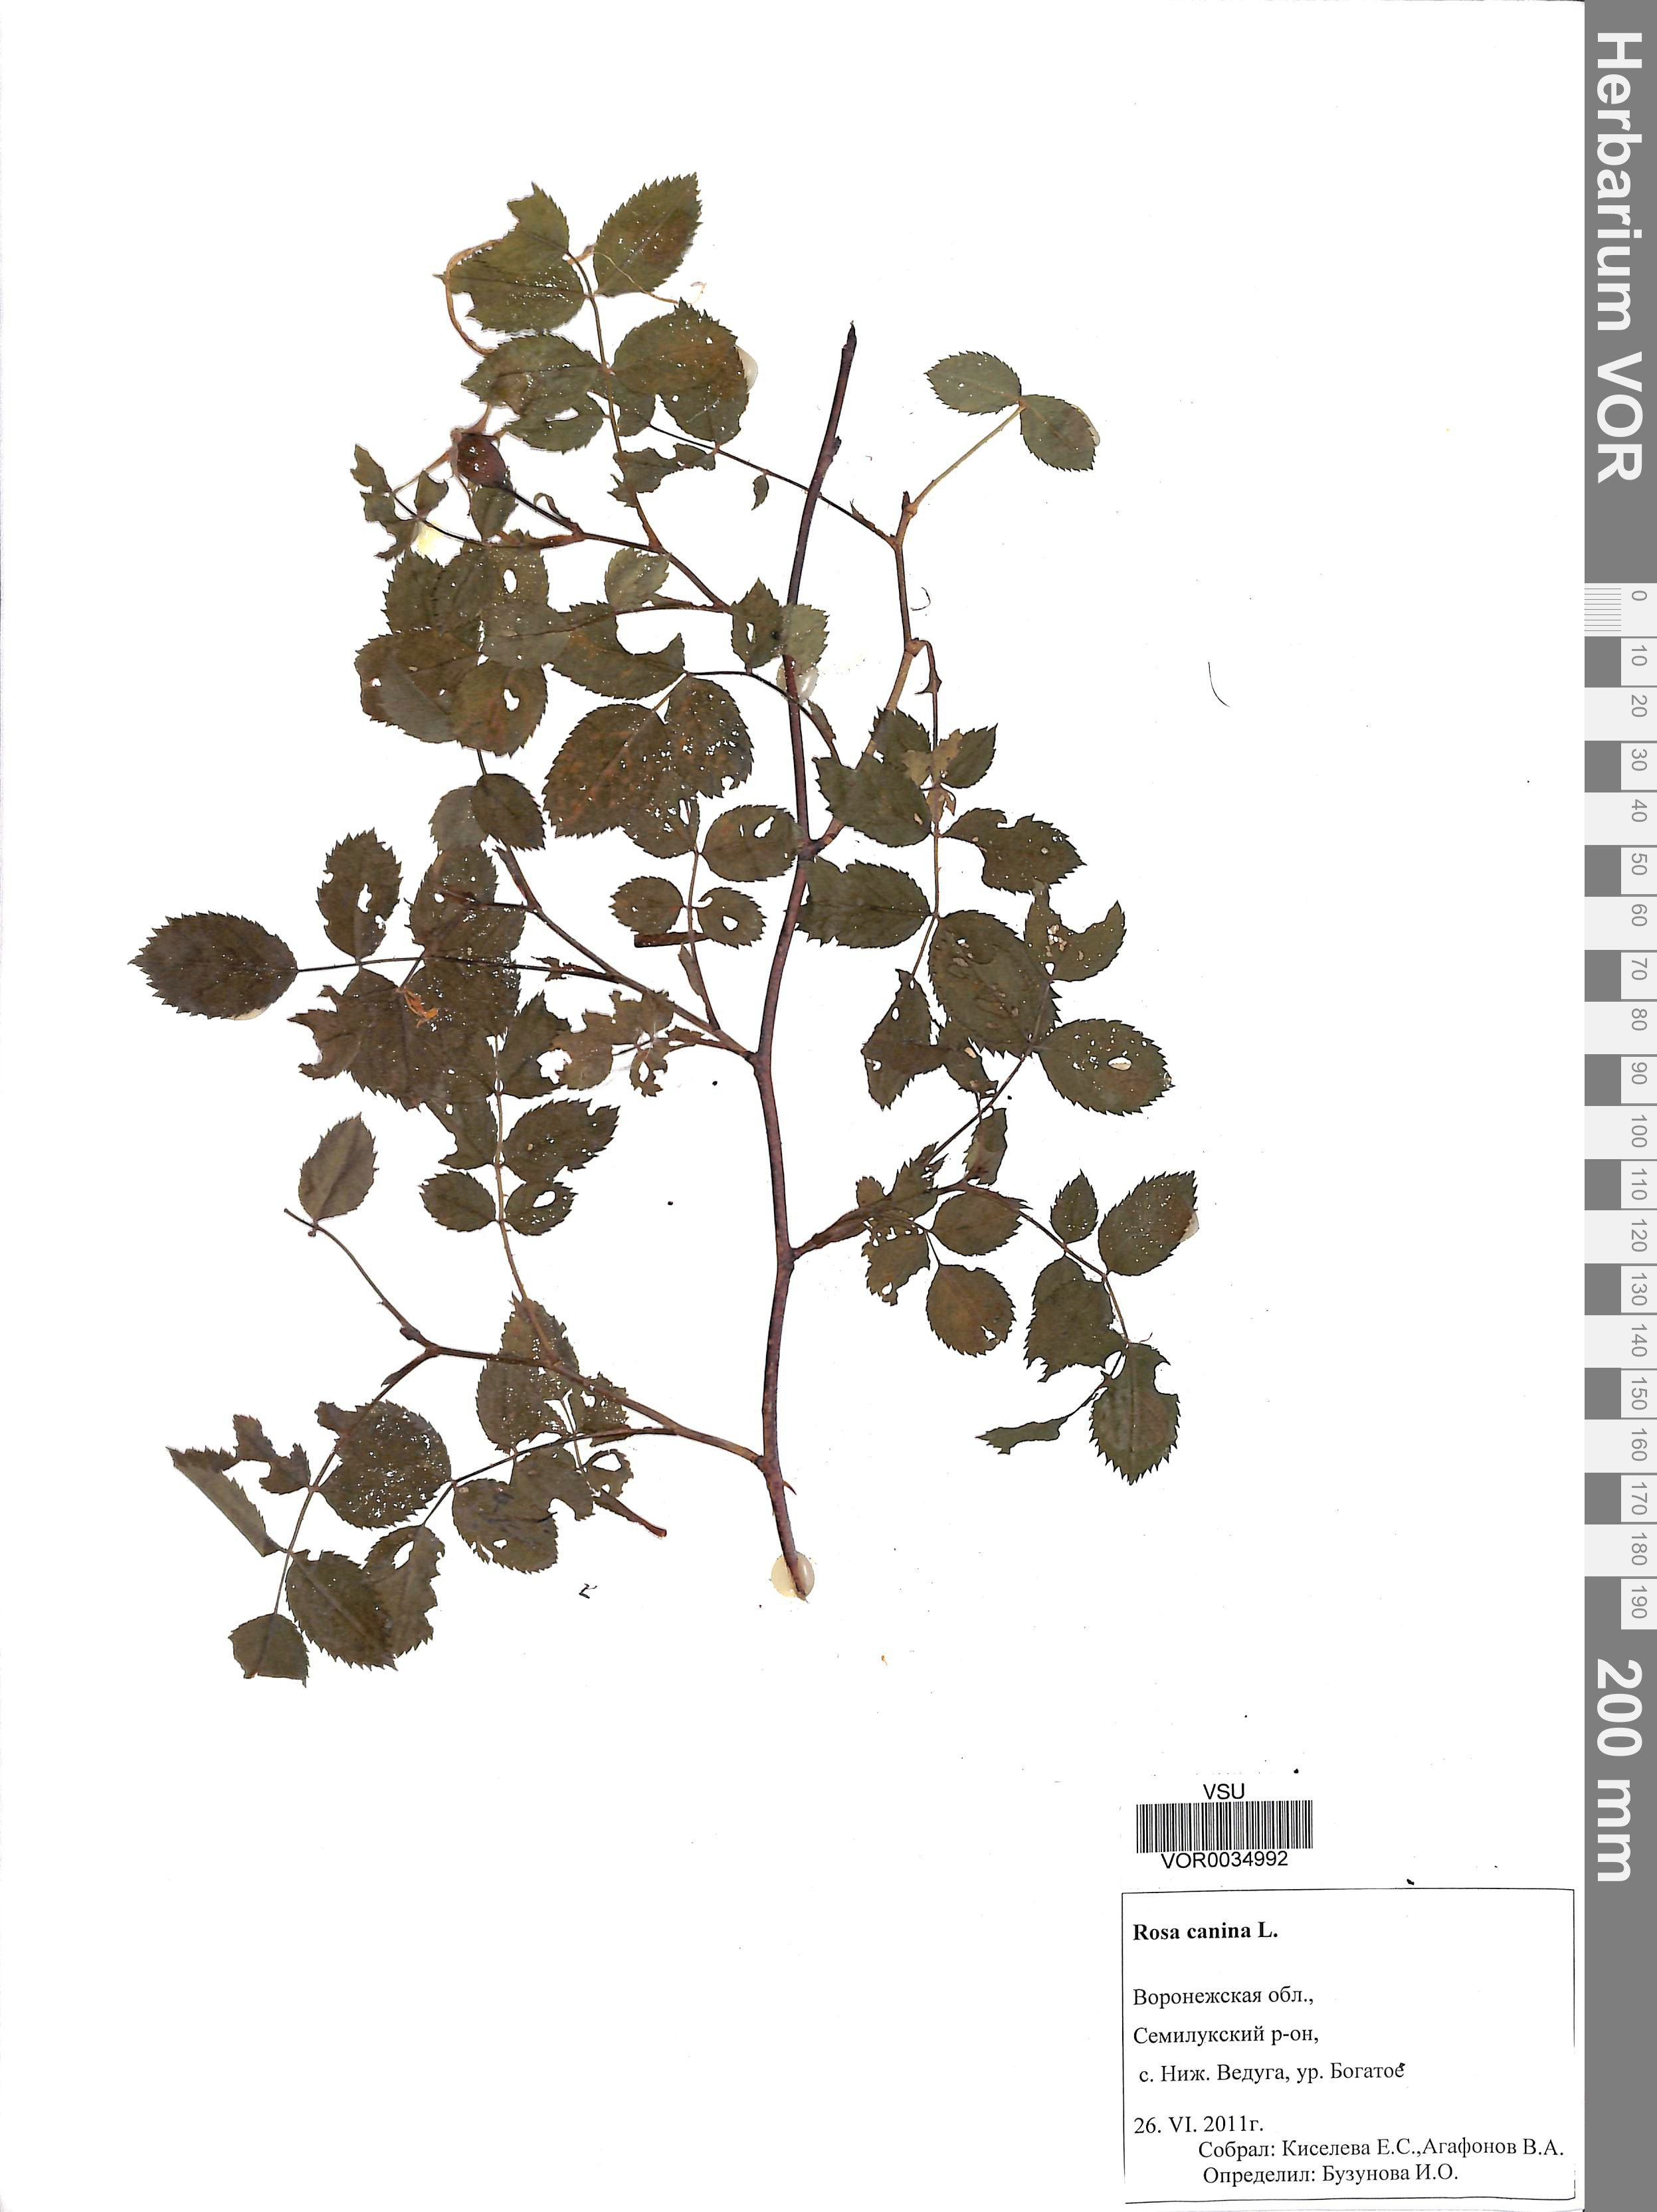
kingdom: Plantae
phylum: Tracheophyta
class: Magnoliopsida
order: Rosales
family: Rosaceae
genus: Rosa
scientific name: Rosa canina
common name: Dog rose
